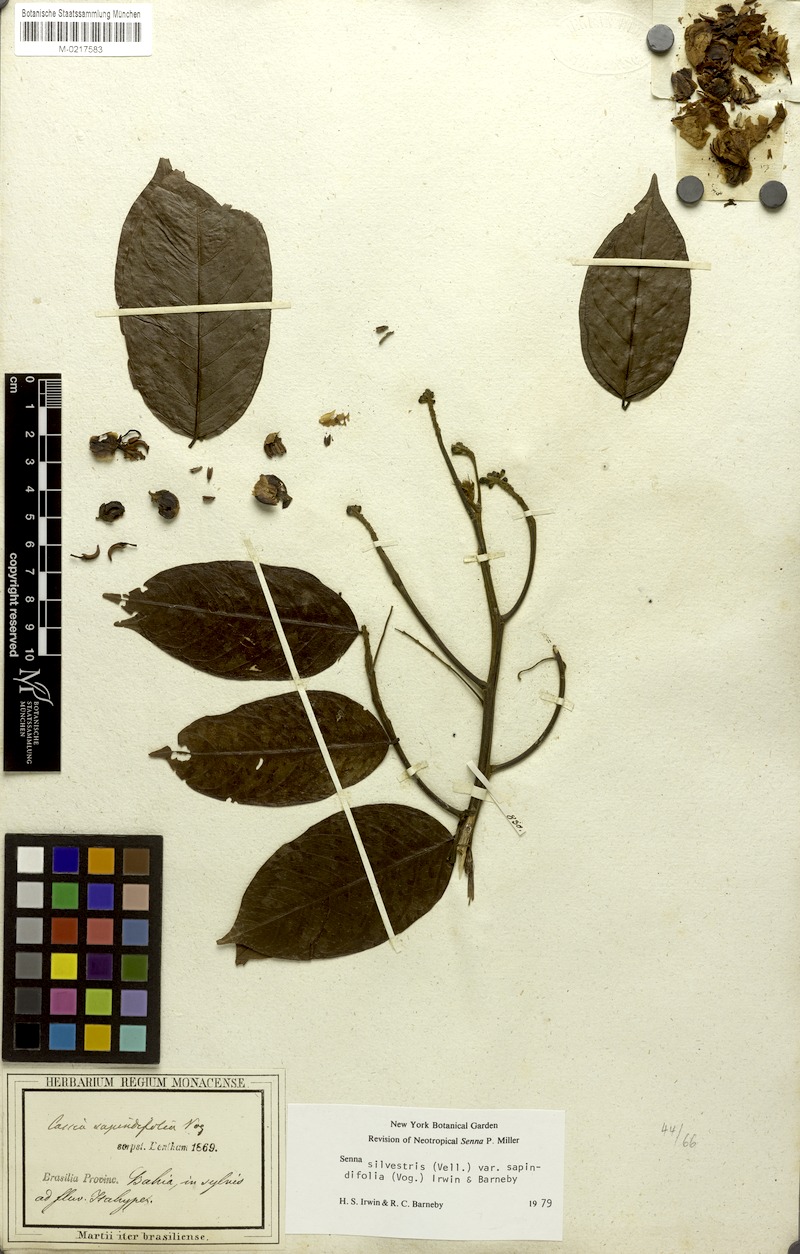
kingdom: Plantae
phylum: Tracheophyta
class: Magnoliopsida
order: Fabales
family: Fabaceae
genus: Senna
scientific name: Senna silvestris
